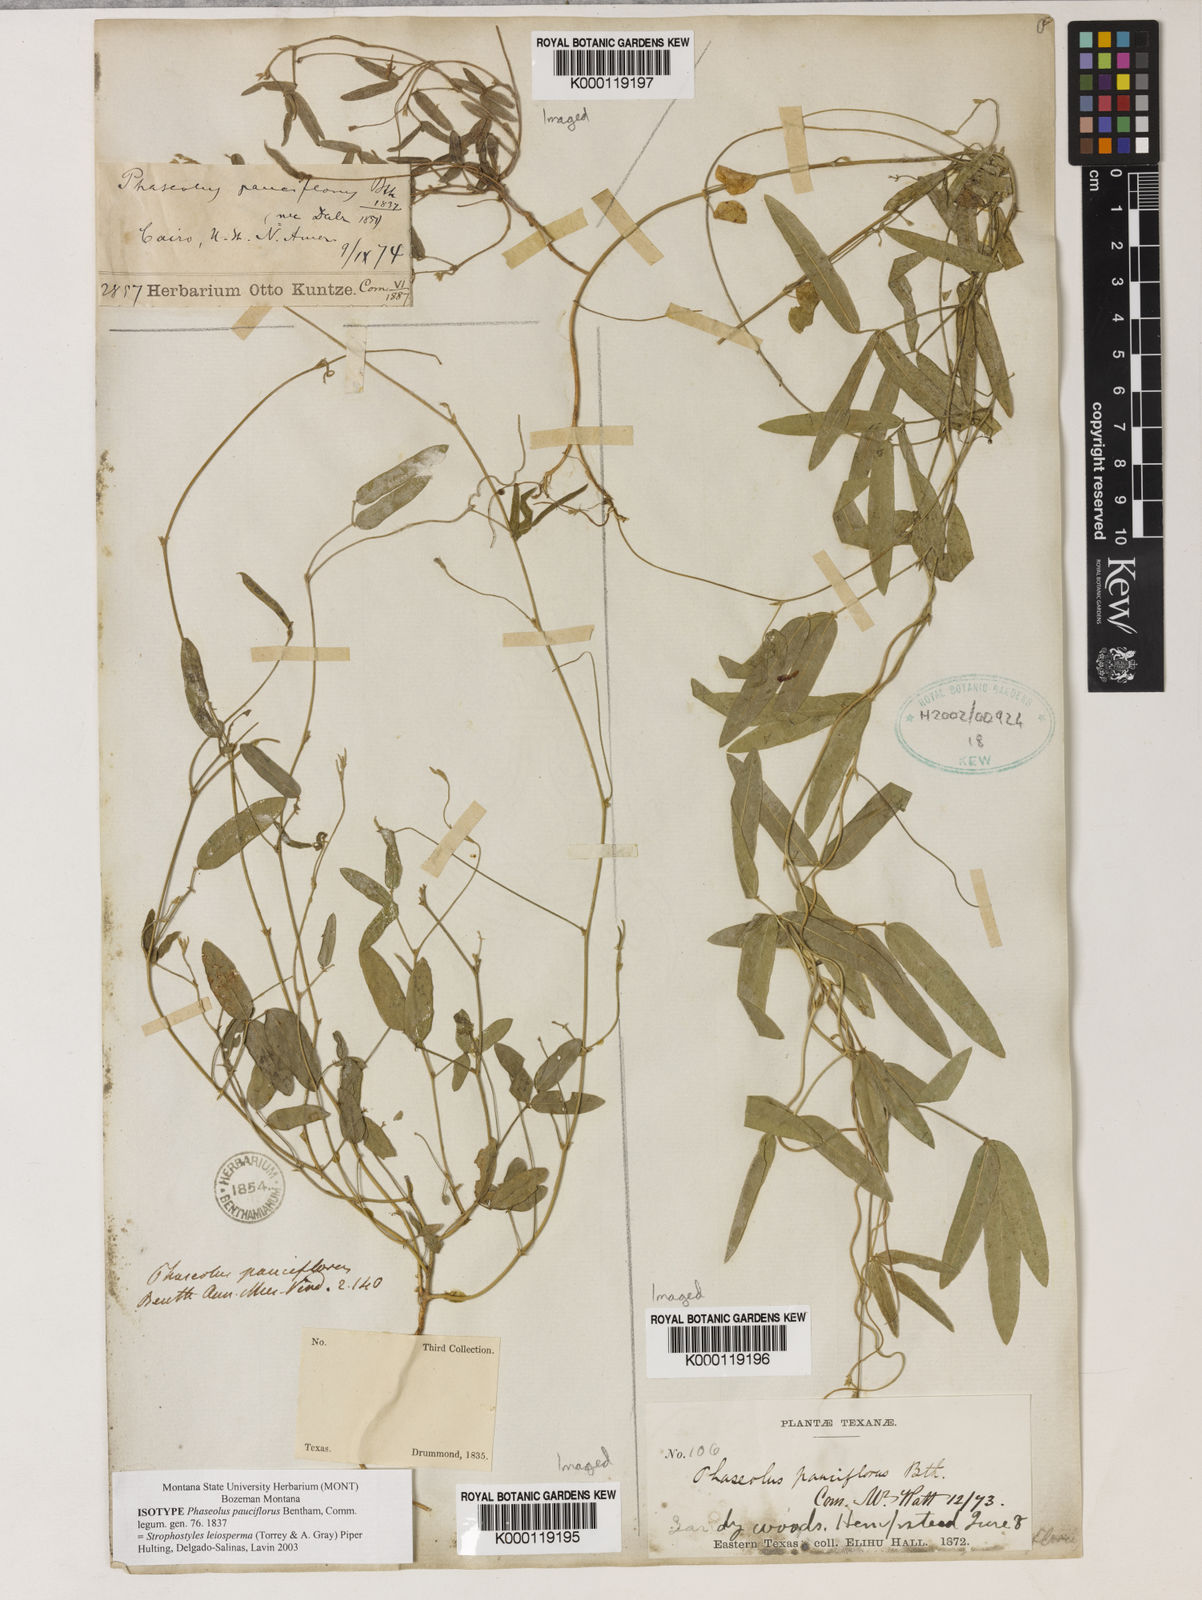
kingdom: Plantae
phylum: Tracheophyta
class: Magnoliopsida
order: Fabales
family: Fabaceae
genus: Strophostyles
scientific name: Strophostyles leiosperma
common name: Smooth-seed wild bean
